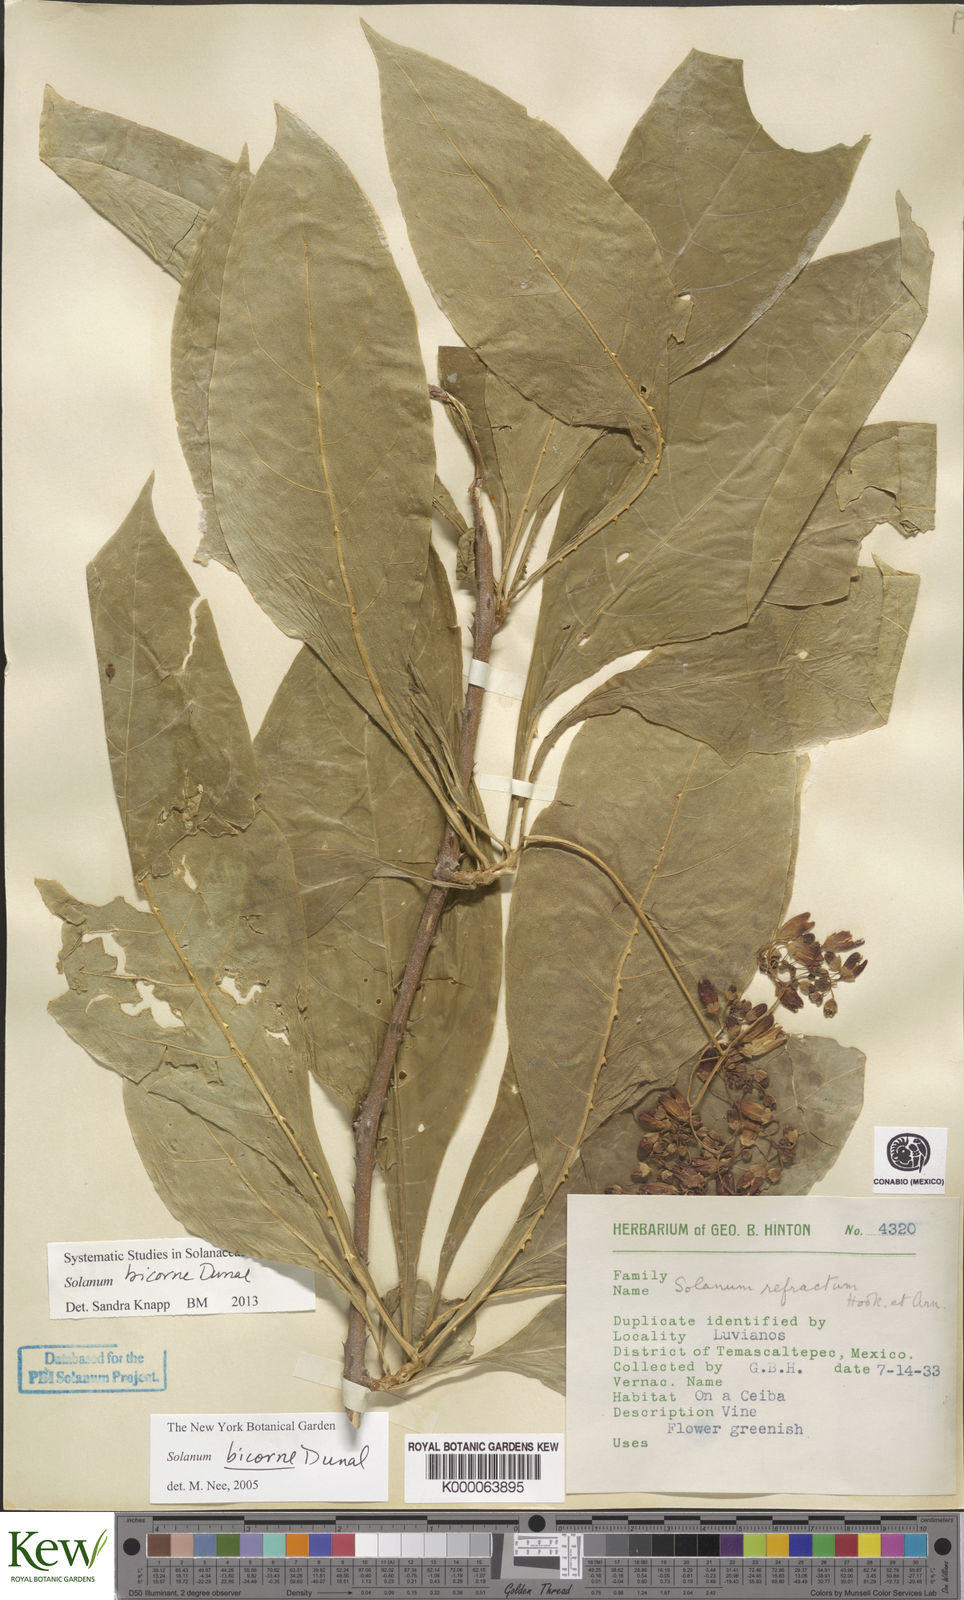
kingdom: Plantae
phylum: Tracheophyta
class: Magnoliopsida
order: Solanales
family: Solanaceae
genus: Solanum
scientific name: Solanum refractum
